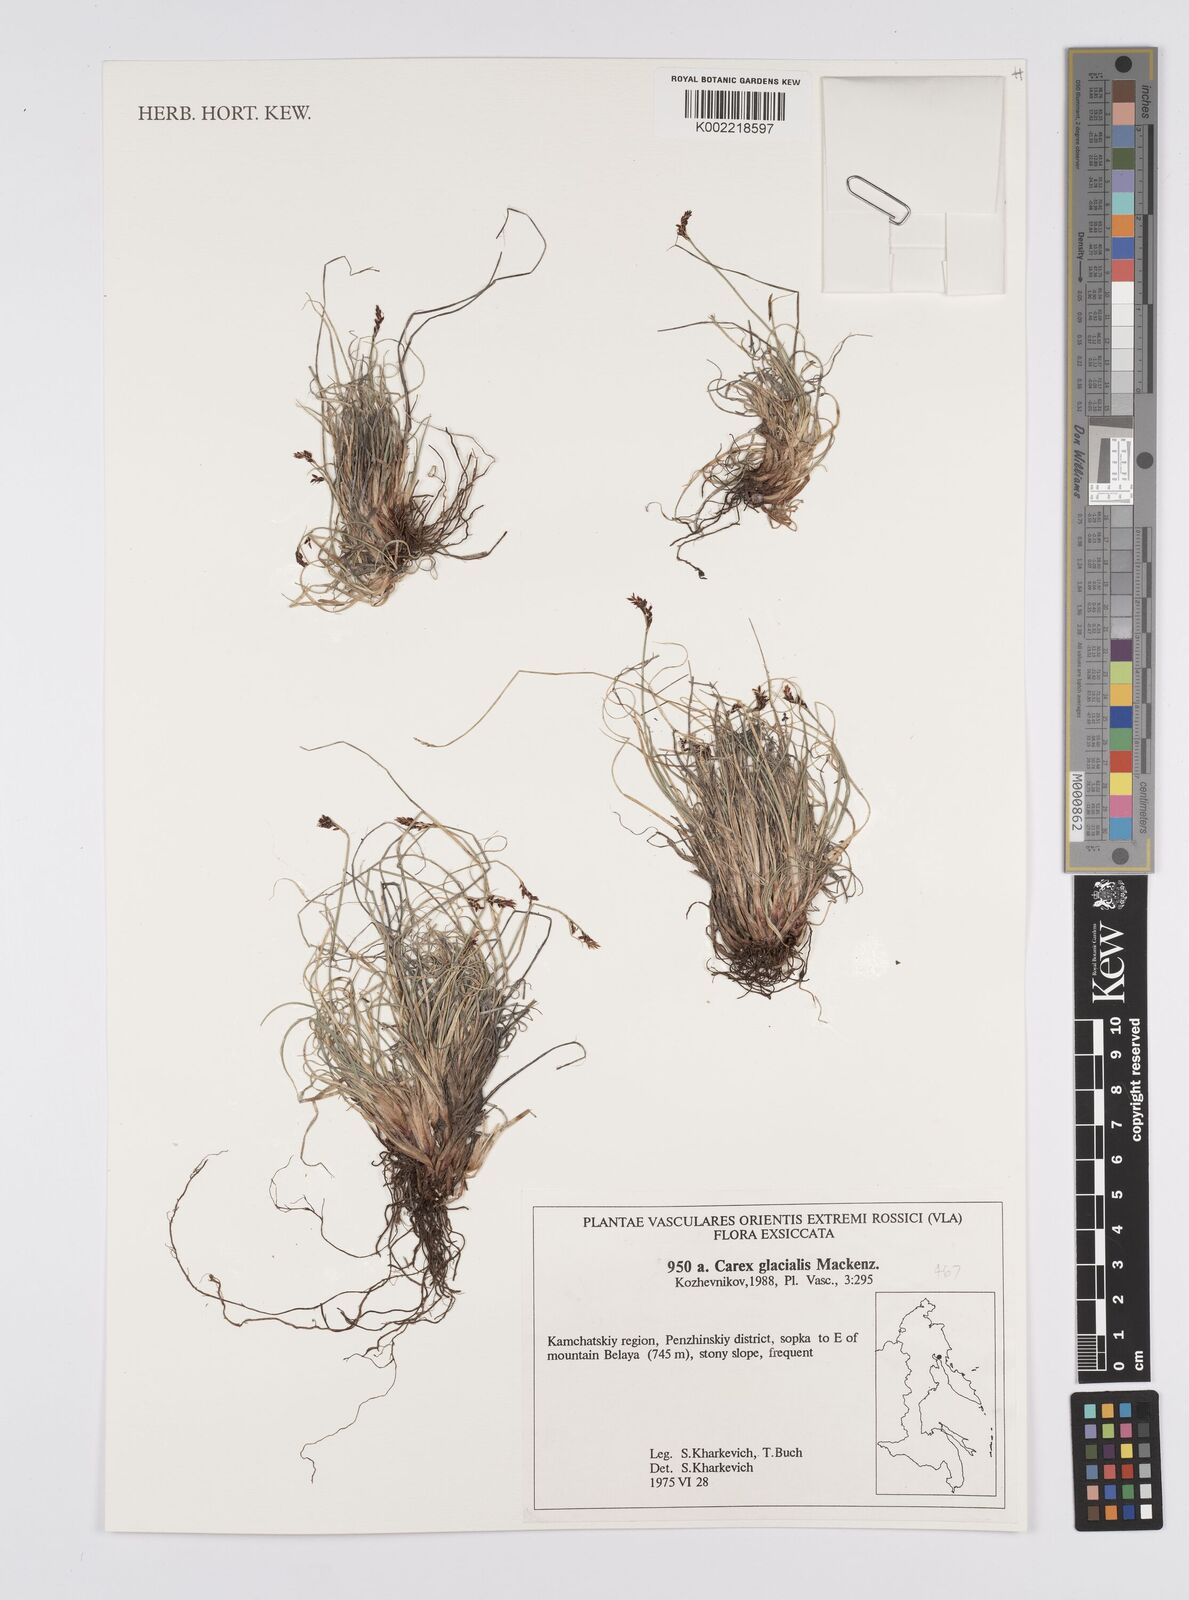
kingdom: Plantae
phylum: Tracheophyta
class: Liliopsida
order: Poales
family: Cyperaceae
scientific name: Cyperaceae
